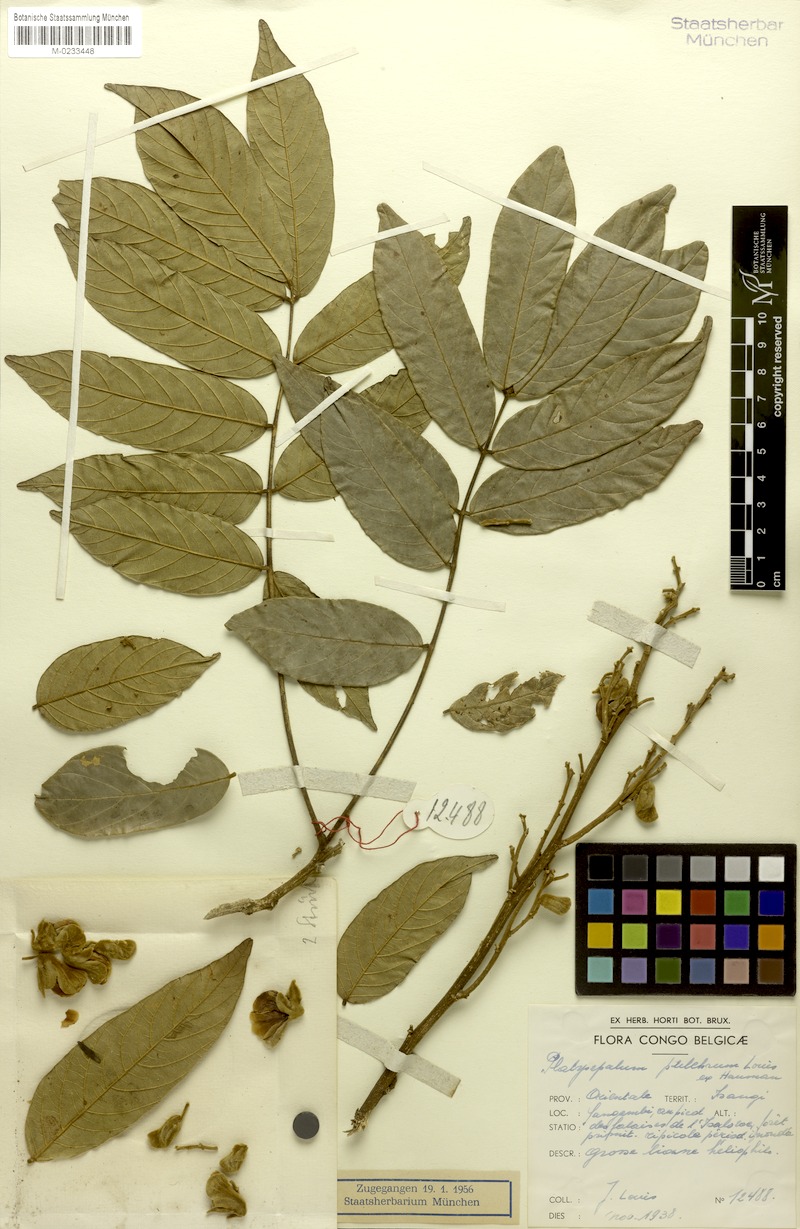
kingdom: Plantae
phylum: Tracheophyta
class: Magnoliopsida
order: Fabales
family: Fabaceae
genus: Platysepalum
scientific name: Platysepalum pulchrum
